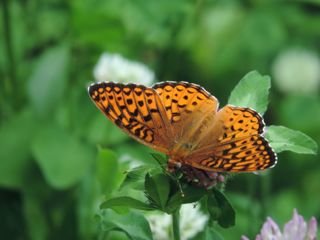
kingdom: Animalia
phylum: Arthropoda
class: Insecta
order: Lepidoptera
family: Nymphalidae
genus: Speyeria
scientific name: Speyeria atlantis
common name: Atlantis Fritillary
